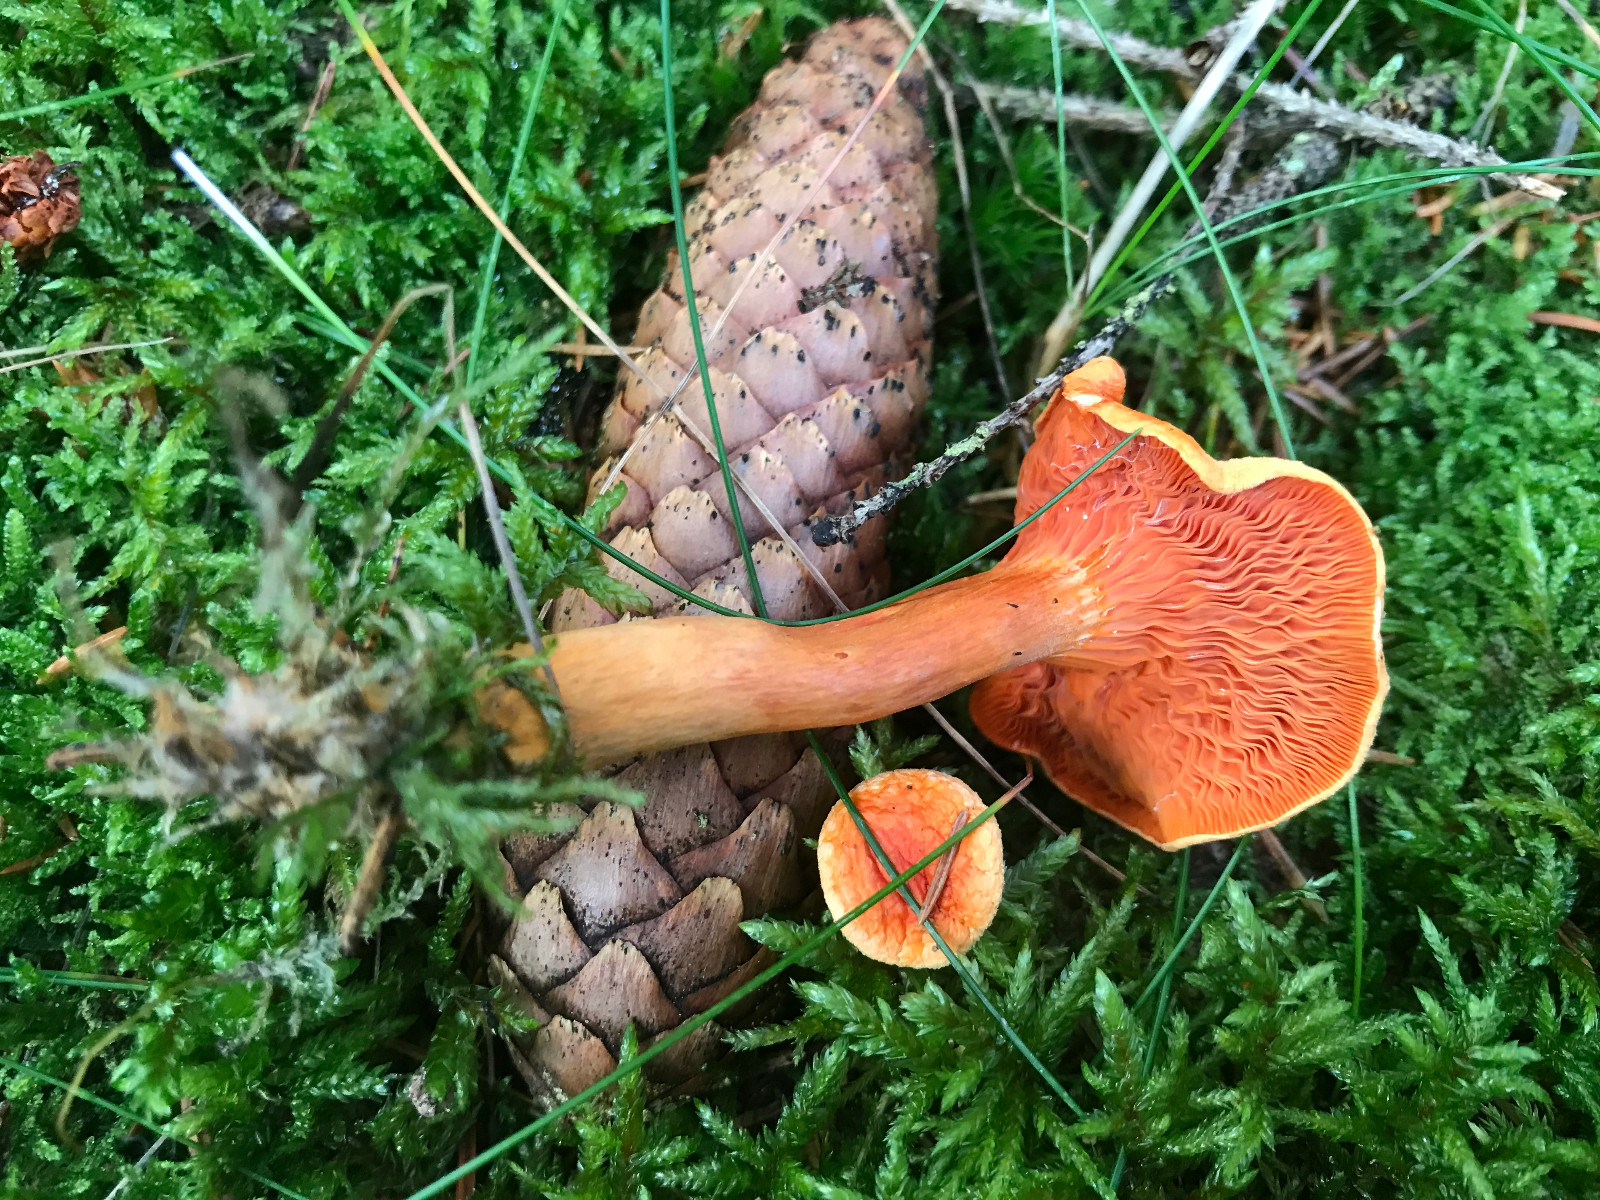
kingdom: Fungi
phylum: Basidiomycota
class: Agaricomycetes
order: Boletales
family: Hygrophoropsidaceae
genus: Hygrophoropsis
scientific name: Hygrophoropsis aurantiaca
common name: almindelig orangekantarel
